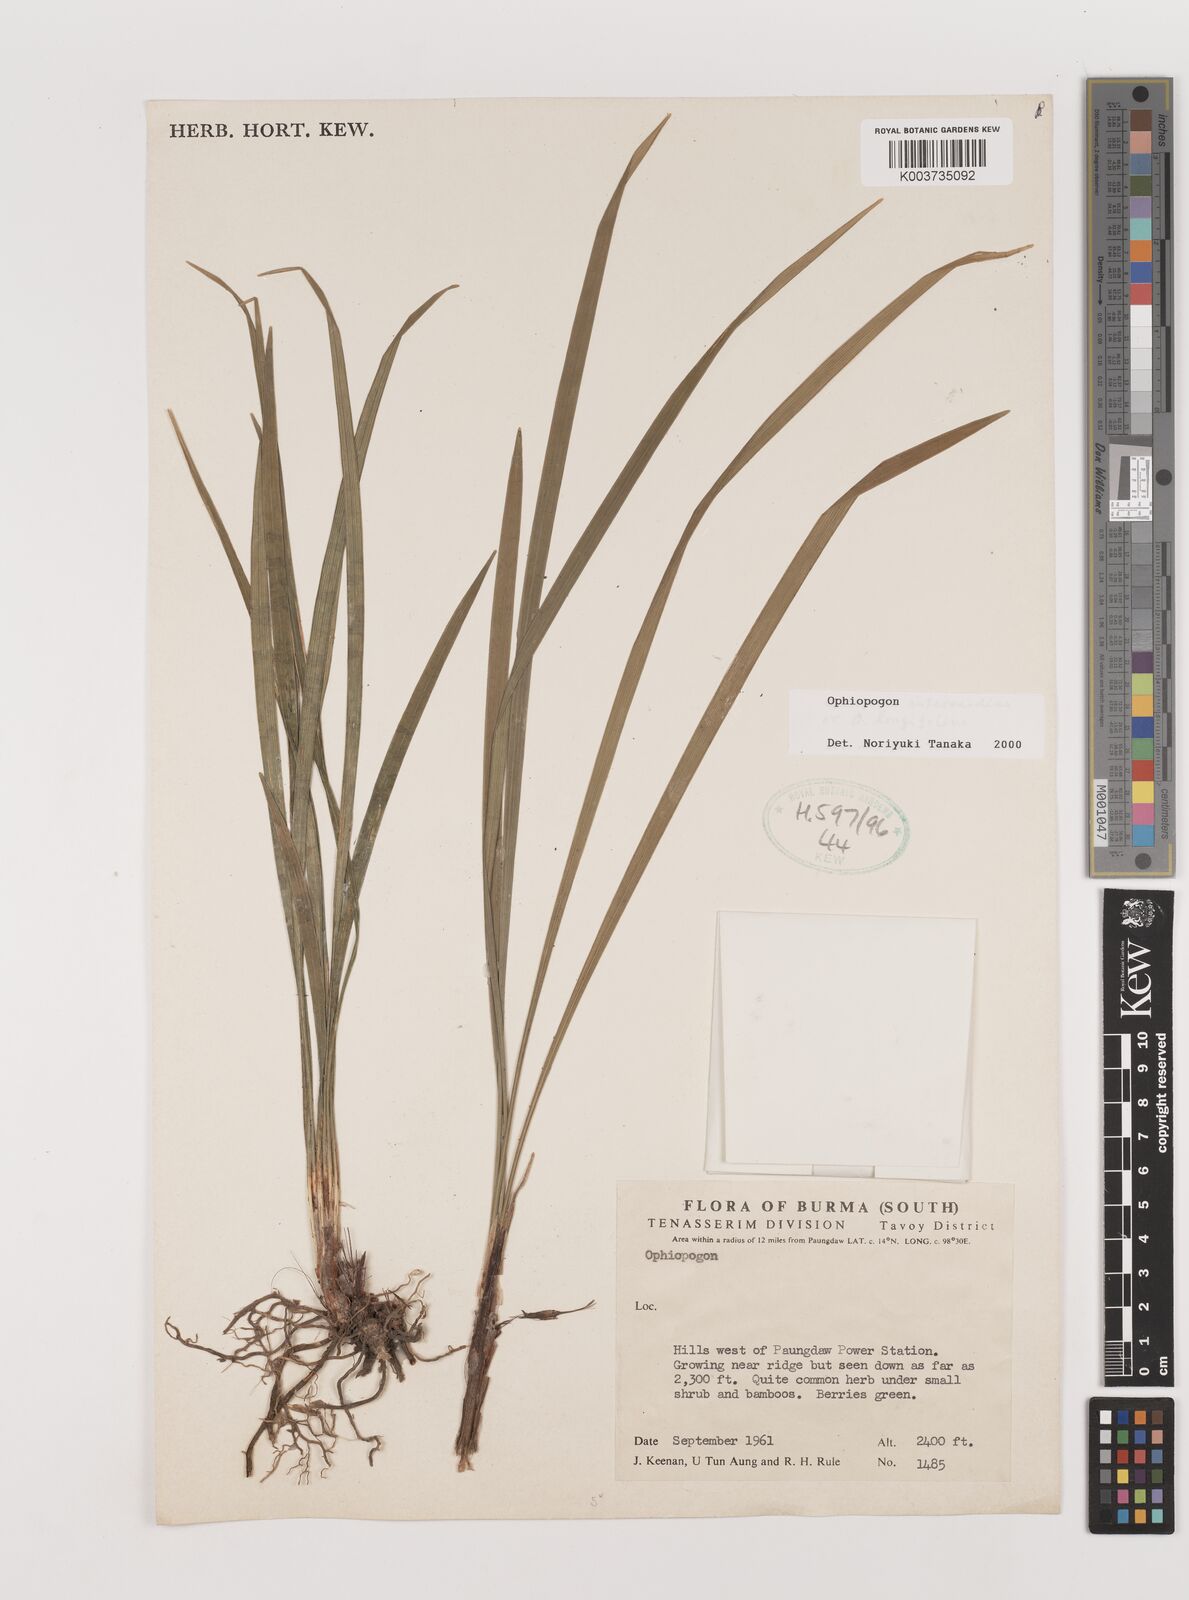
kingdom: Plantae
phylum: Tracheophyta
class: Liliopsida
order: Asparagales
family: Asparagaceae
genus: Ophiopogon
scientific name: Ophiopogon
